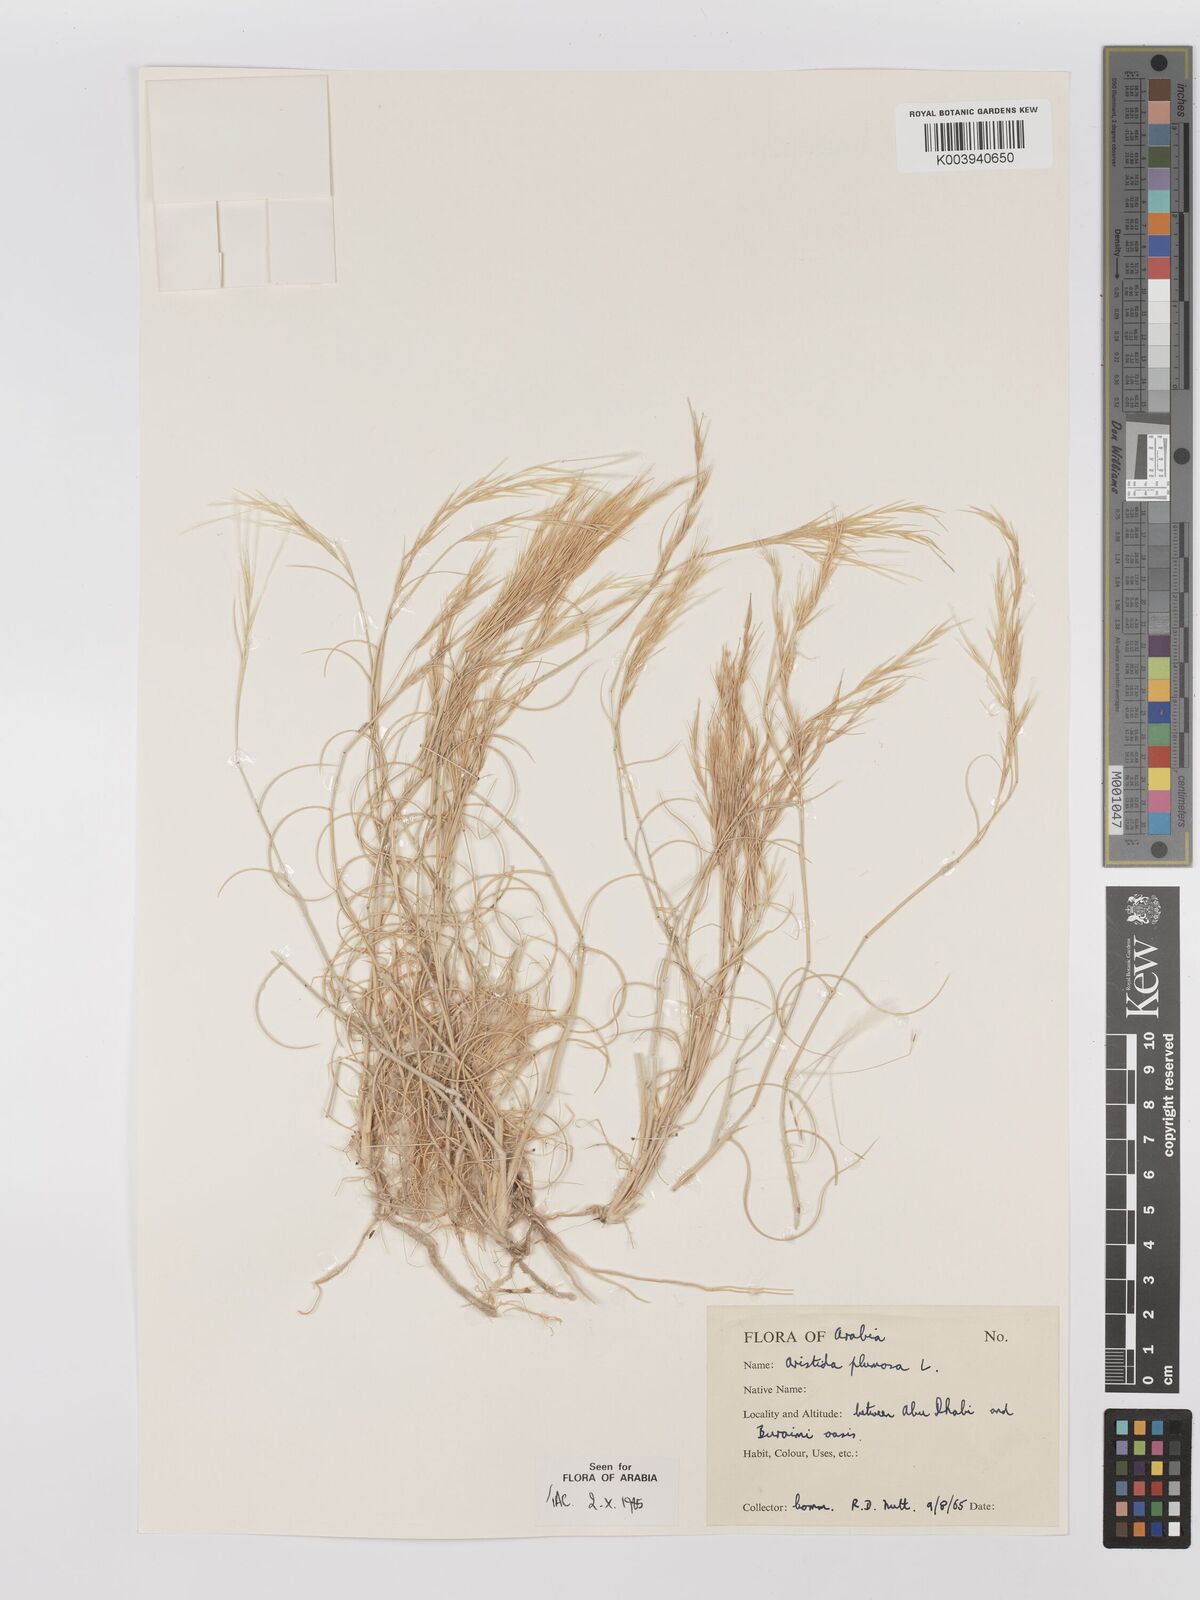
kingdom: Plantae
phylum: Tracheophyta
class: Liliopsida
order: Poales
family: Poaceae
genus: Stipagrostis
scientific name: Stipagrostis plumosa
